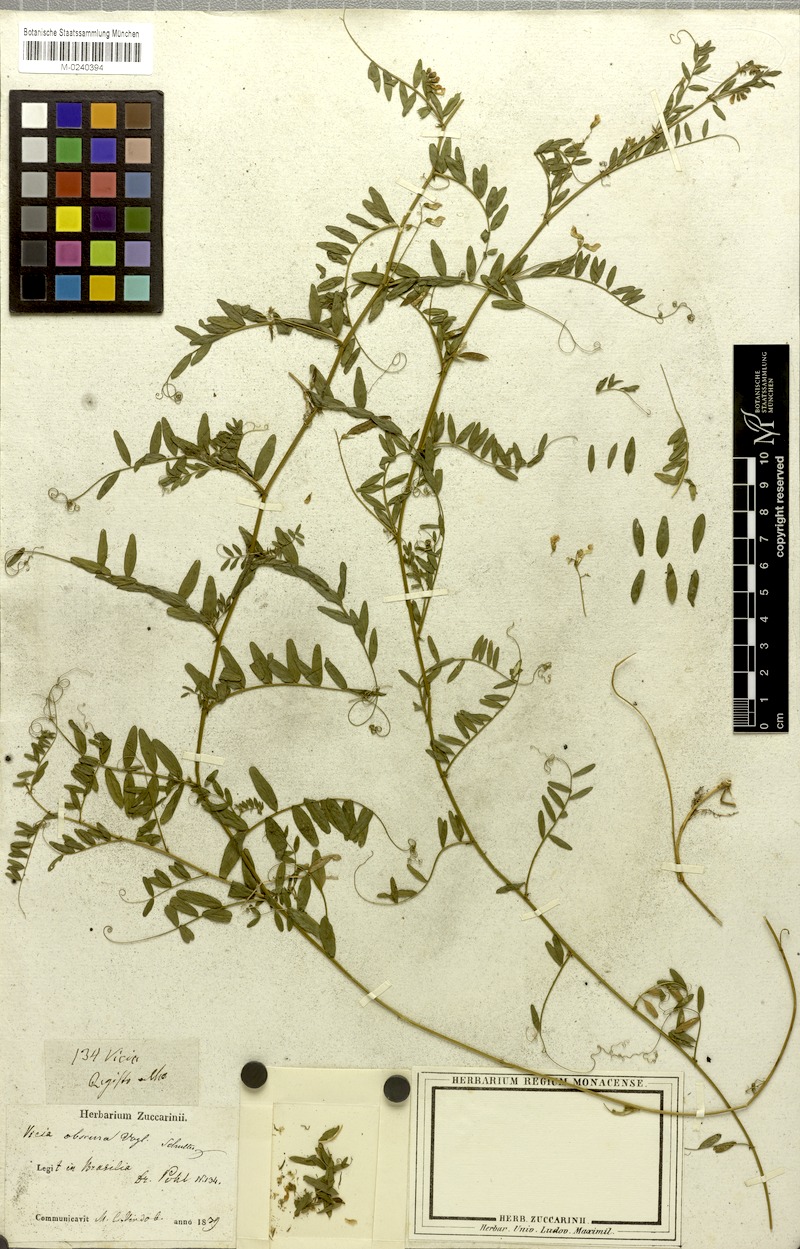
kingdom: Plantae
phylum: Tracheophyta
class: Magnoliopsida
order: Fabales
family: Fabaceae
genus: Vicia
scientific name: Vicia montevidensis
